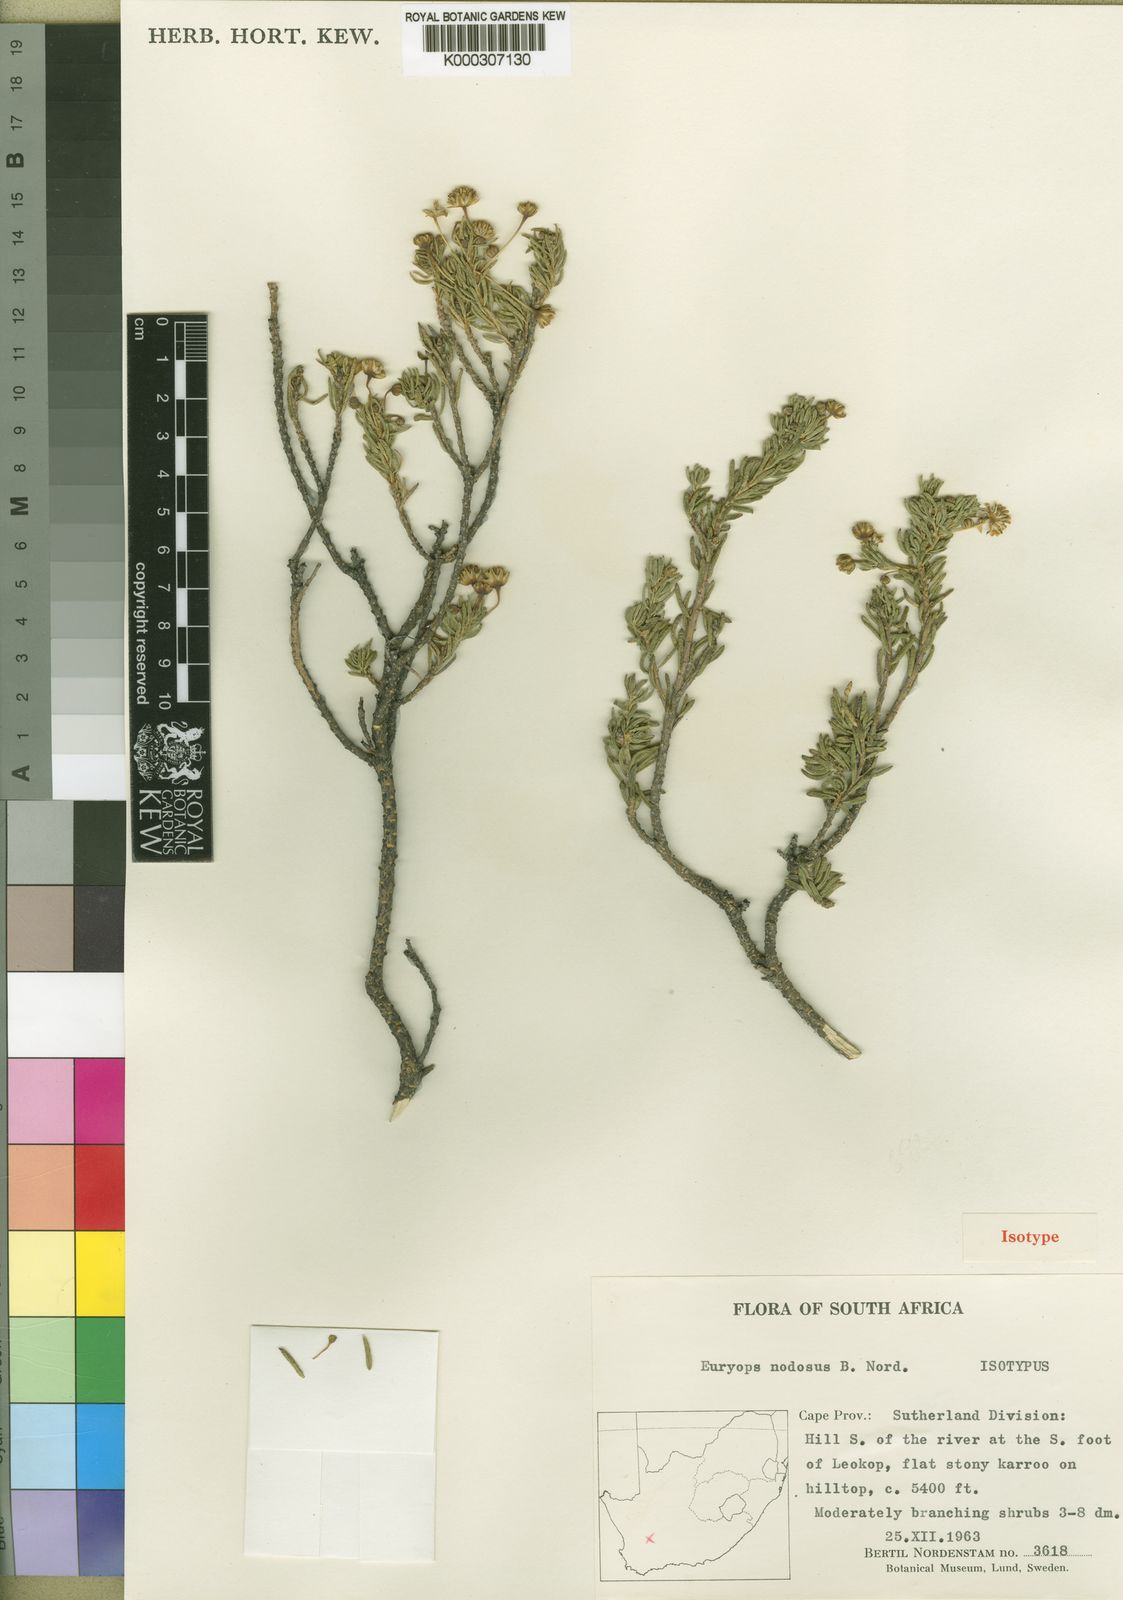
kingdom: Plantae
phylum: Tracheophyta
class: Magnoliopsida
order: Asterales
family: Asteraceae
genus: Euryops
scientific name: Euryops nodosus
